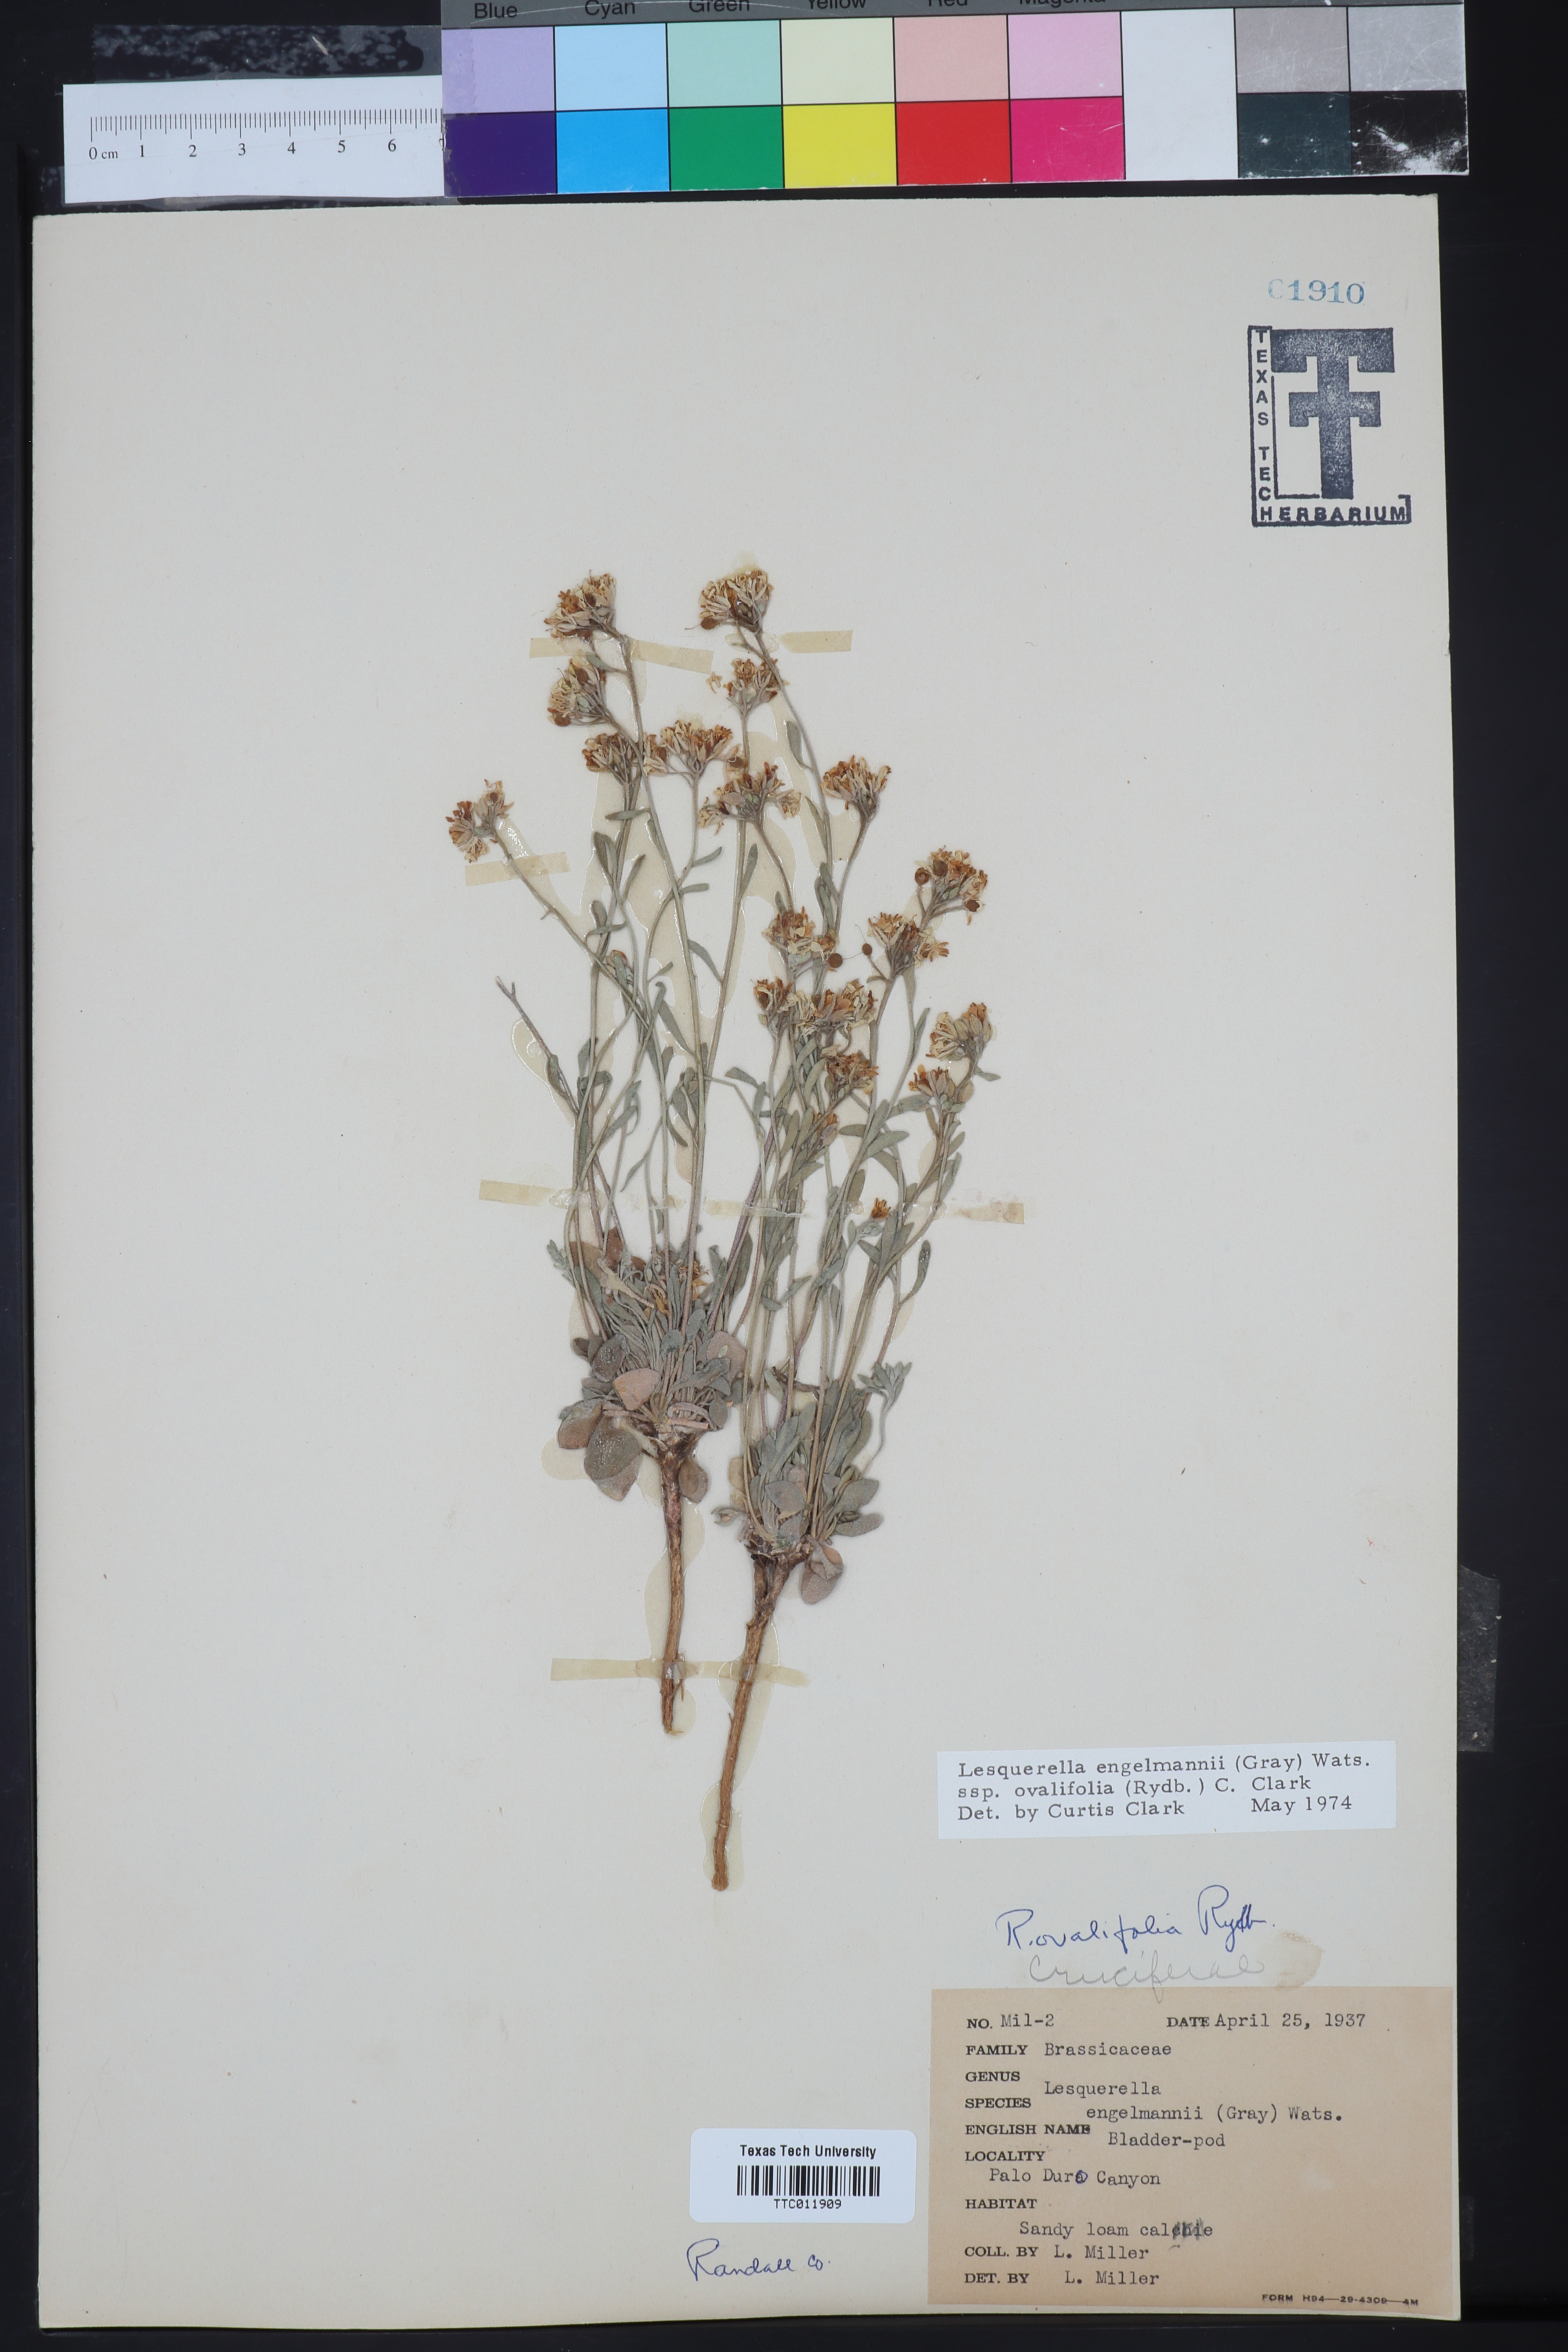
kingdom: Plantae
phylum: Tracheophyta
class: Magnoliopsida
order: Brassicales
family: Brassicaceae
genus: Physaria
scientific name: Physaria ovalifolia
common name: Round-leaf bladderpod
